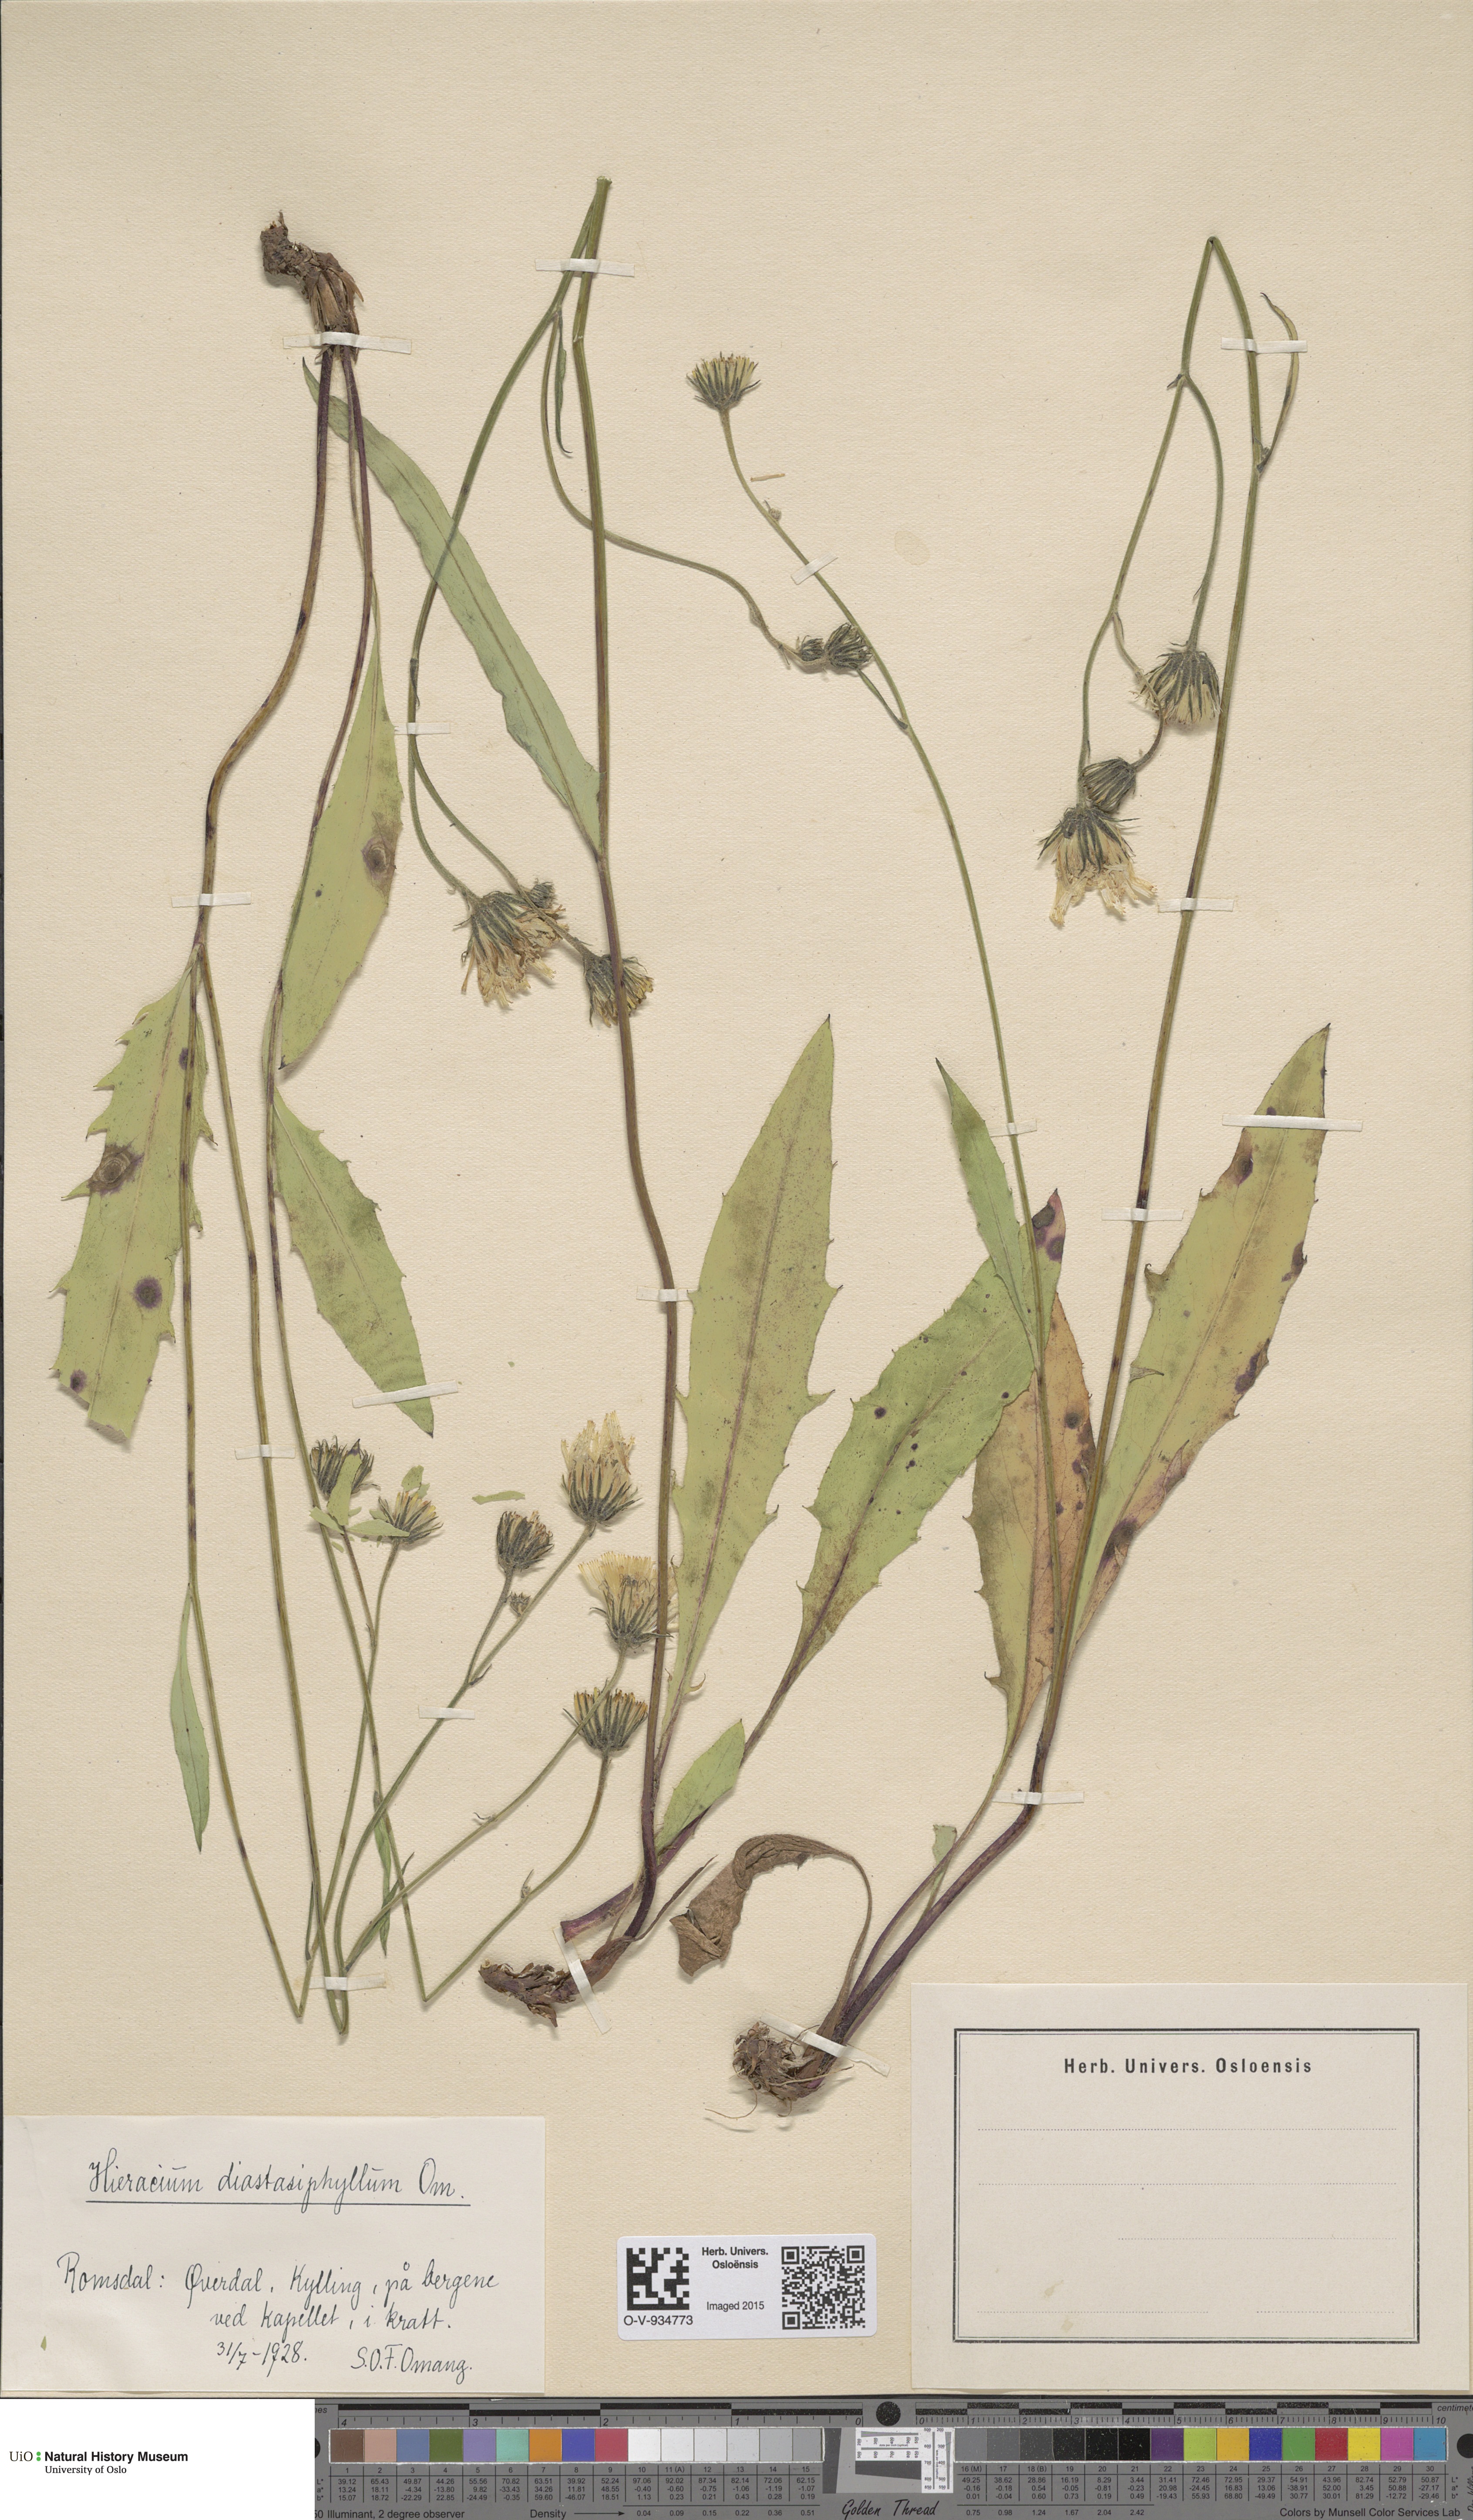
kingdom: Plantae
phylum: Tracheophyta
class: Magnoliopsida
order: Asterales
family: Asteraceae
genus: Hieracium
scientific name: Hieracium
